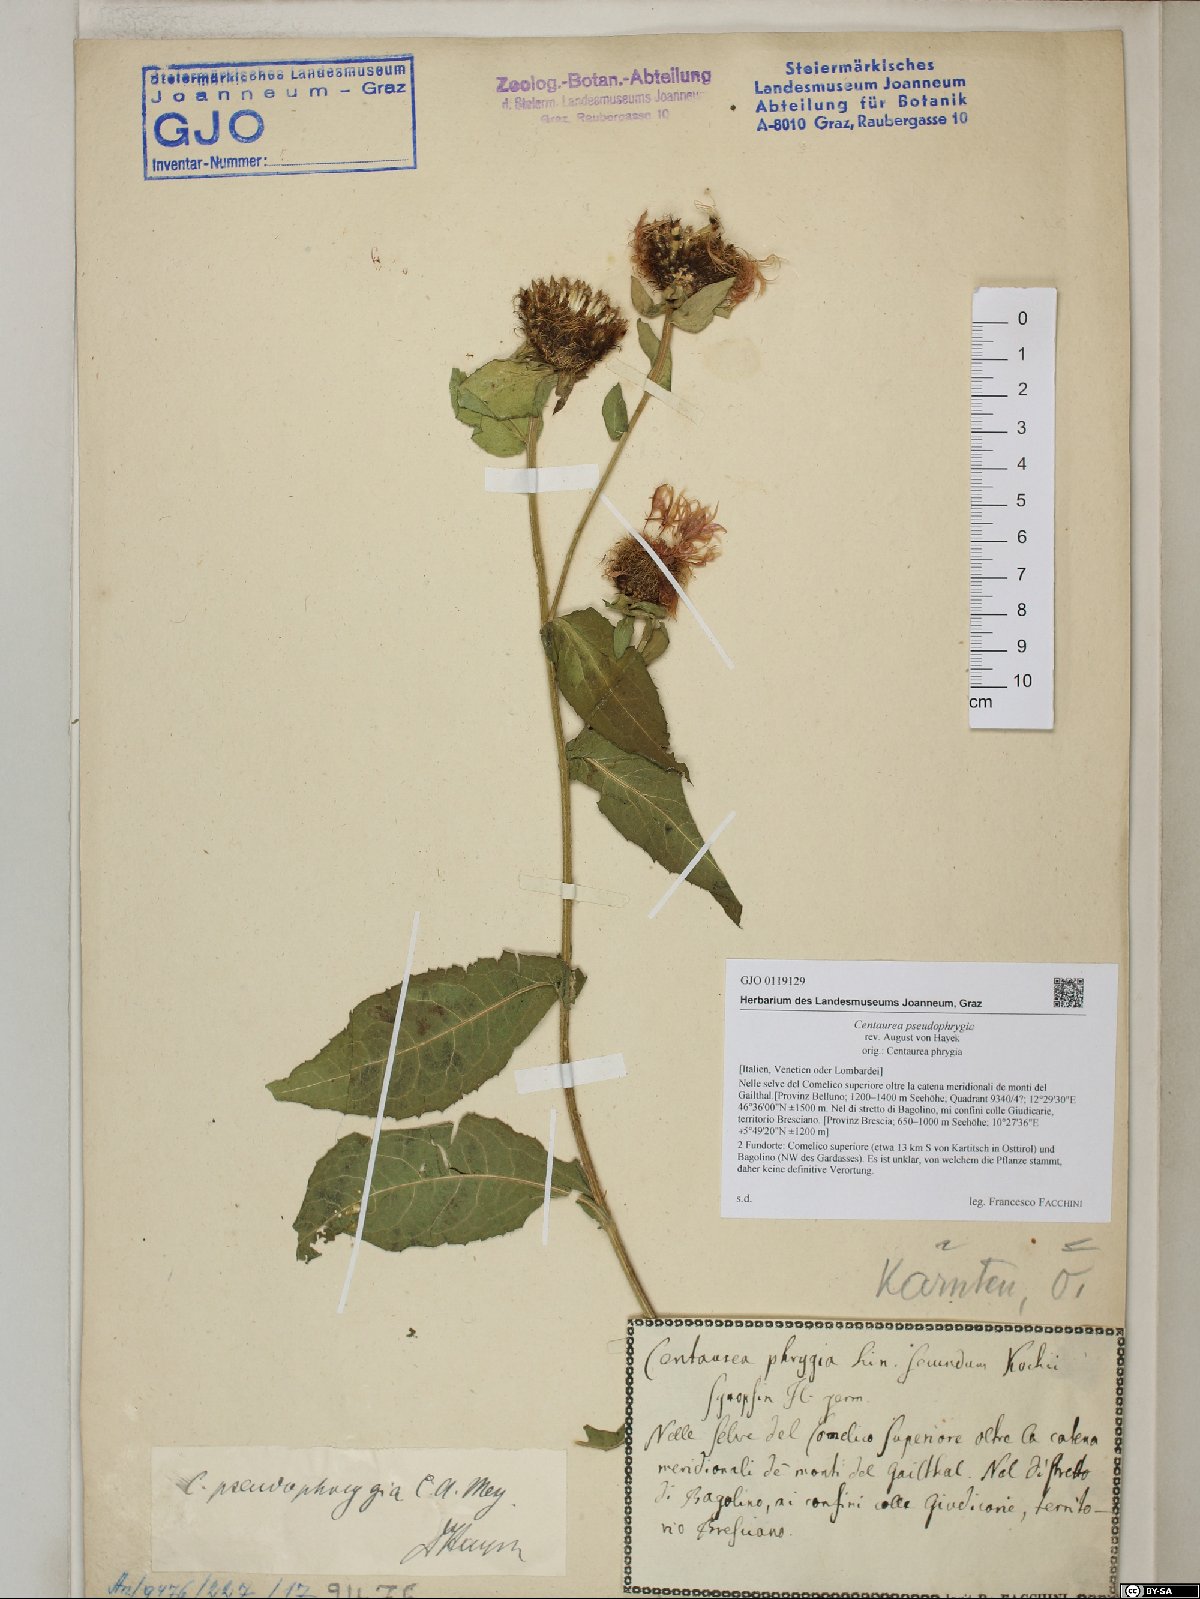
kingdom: Plantae
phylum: Tracheophyta
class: Magnoliopsida
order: Asterales
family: Asteraceae
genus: Centaurea
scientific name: Centaurea pseudophrygia
